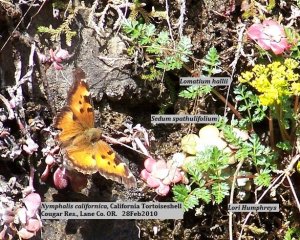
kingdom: Animalia
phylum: Arthropoda
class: Insecta
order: Lepidoptera
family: Nymphalidae
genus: Nymphalis
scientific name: Nymphalis californica
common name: California Tortoiseshell
